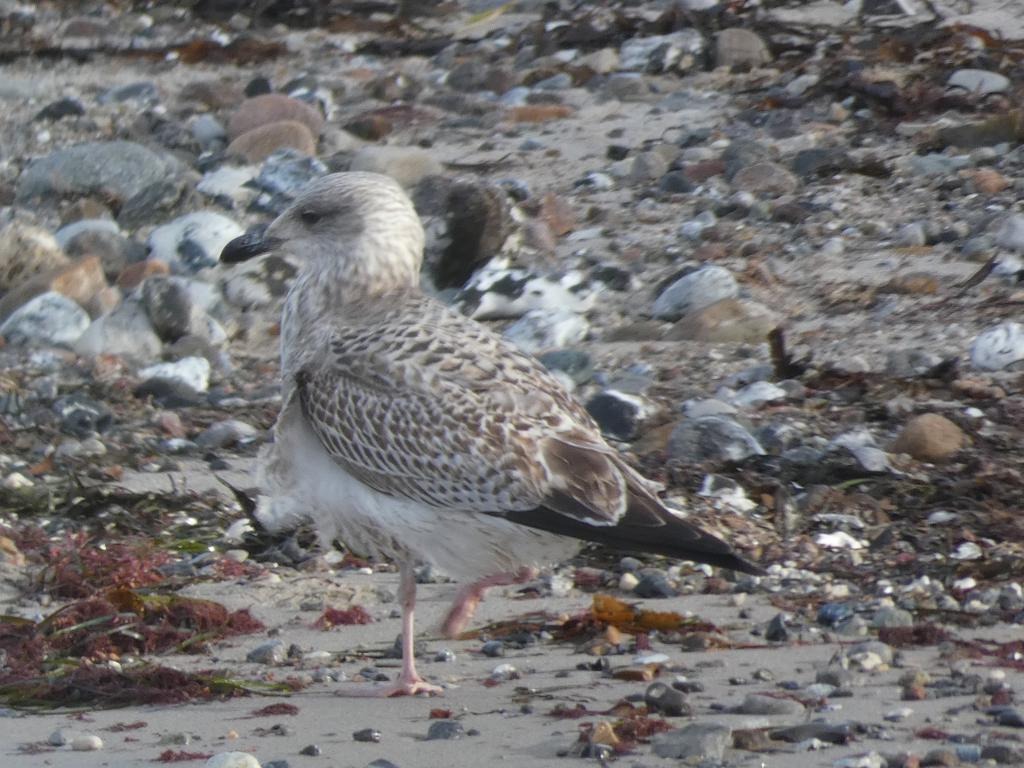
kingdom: Animalia
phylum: Chordata
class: Aves
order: Charadriiformes
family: Laridae
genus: Larus
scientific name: Larus argentatus
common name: Sølvmåge
